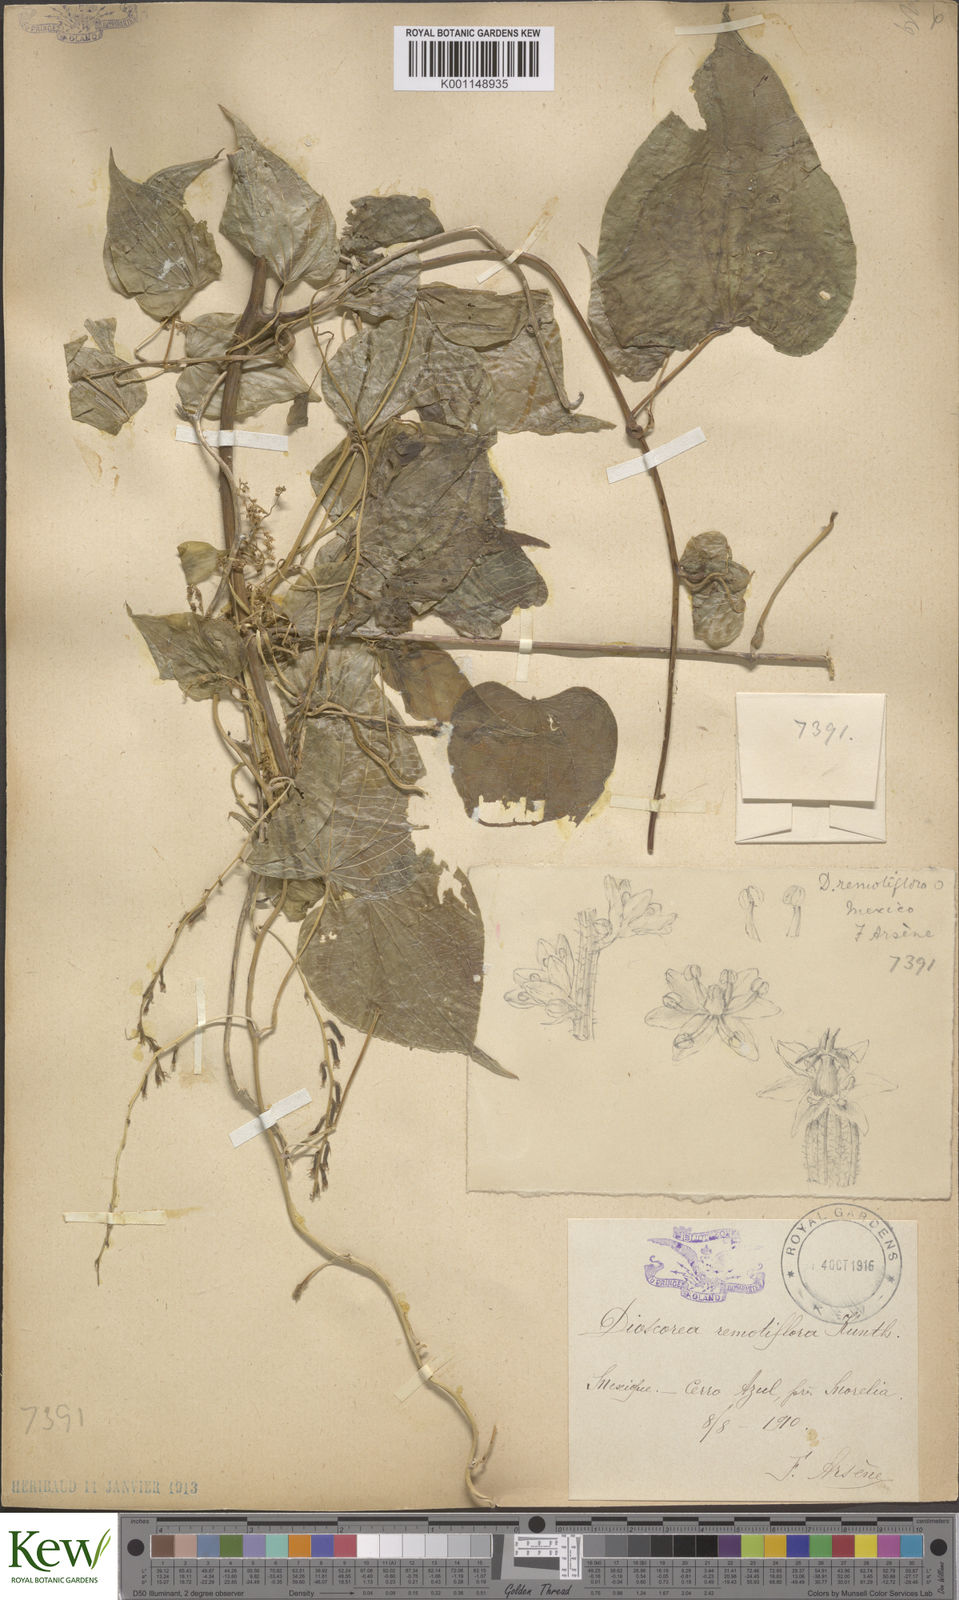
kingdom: Plantae
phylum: Tracheophyta
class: Liliopsida
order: Dioscoreales
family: Dioscoreaceae
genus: Dioscorea
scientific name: Dioscorea remotiflora
